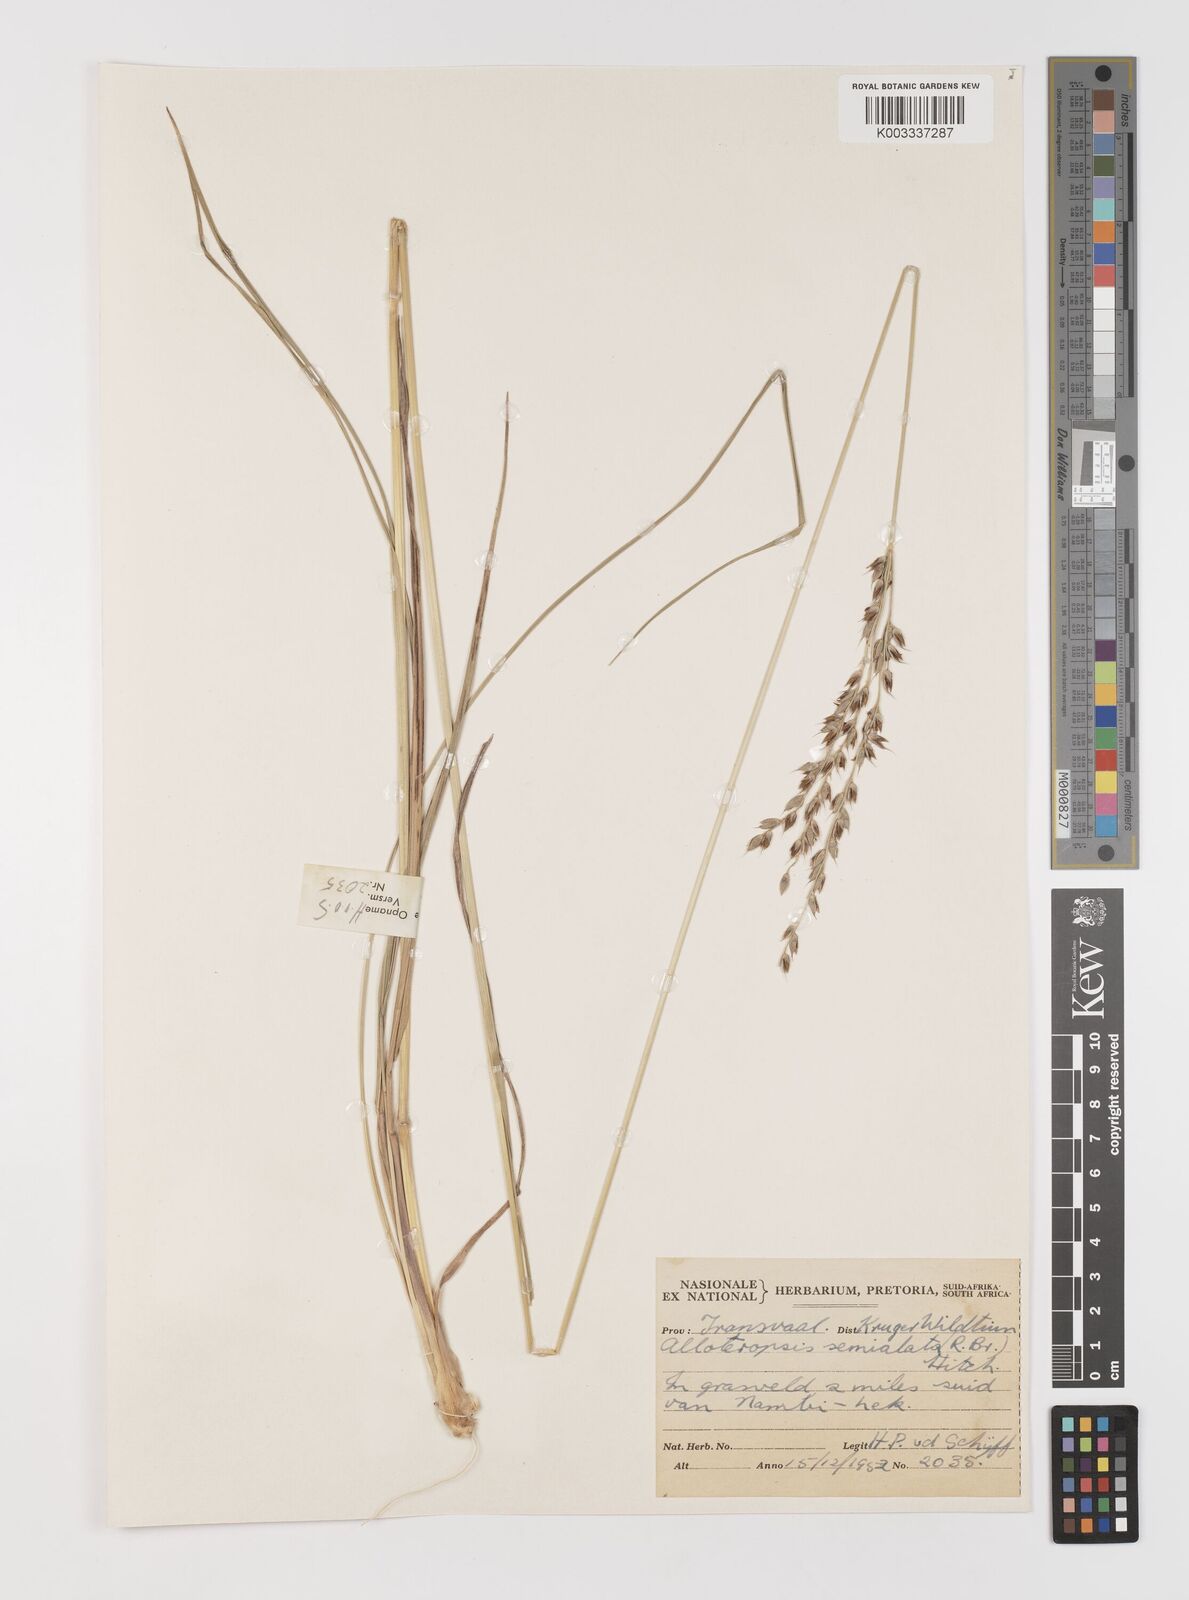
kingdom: Plantae
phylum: Tracheophyta
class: Liliopsida
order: Poales
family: Poaceae
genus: Alloteropsis
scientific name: Alloteropsis semialata
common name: Cockatoo grass
